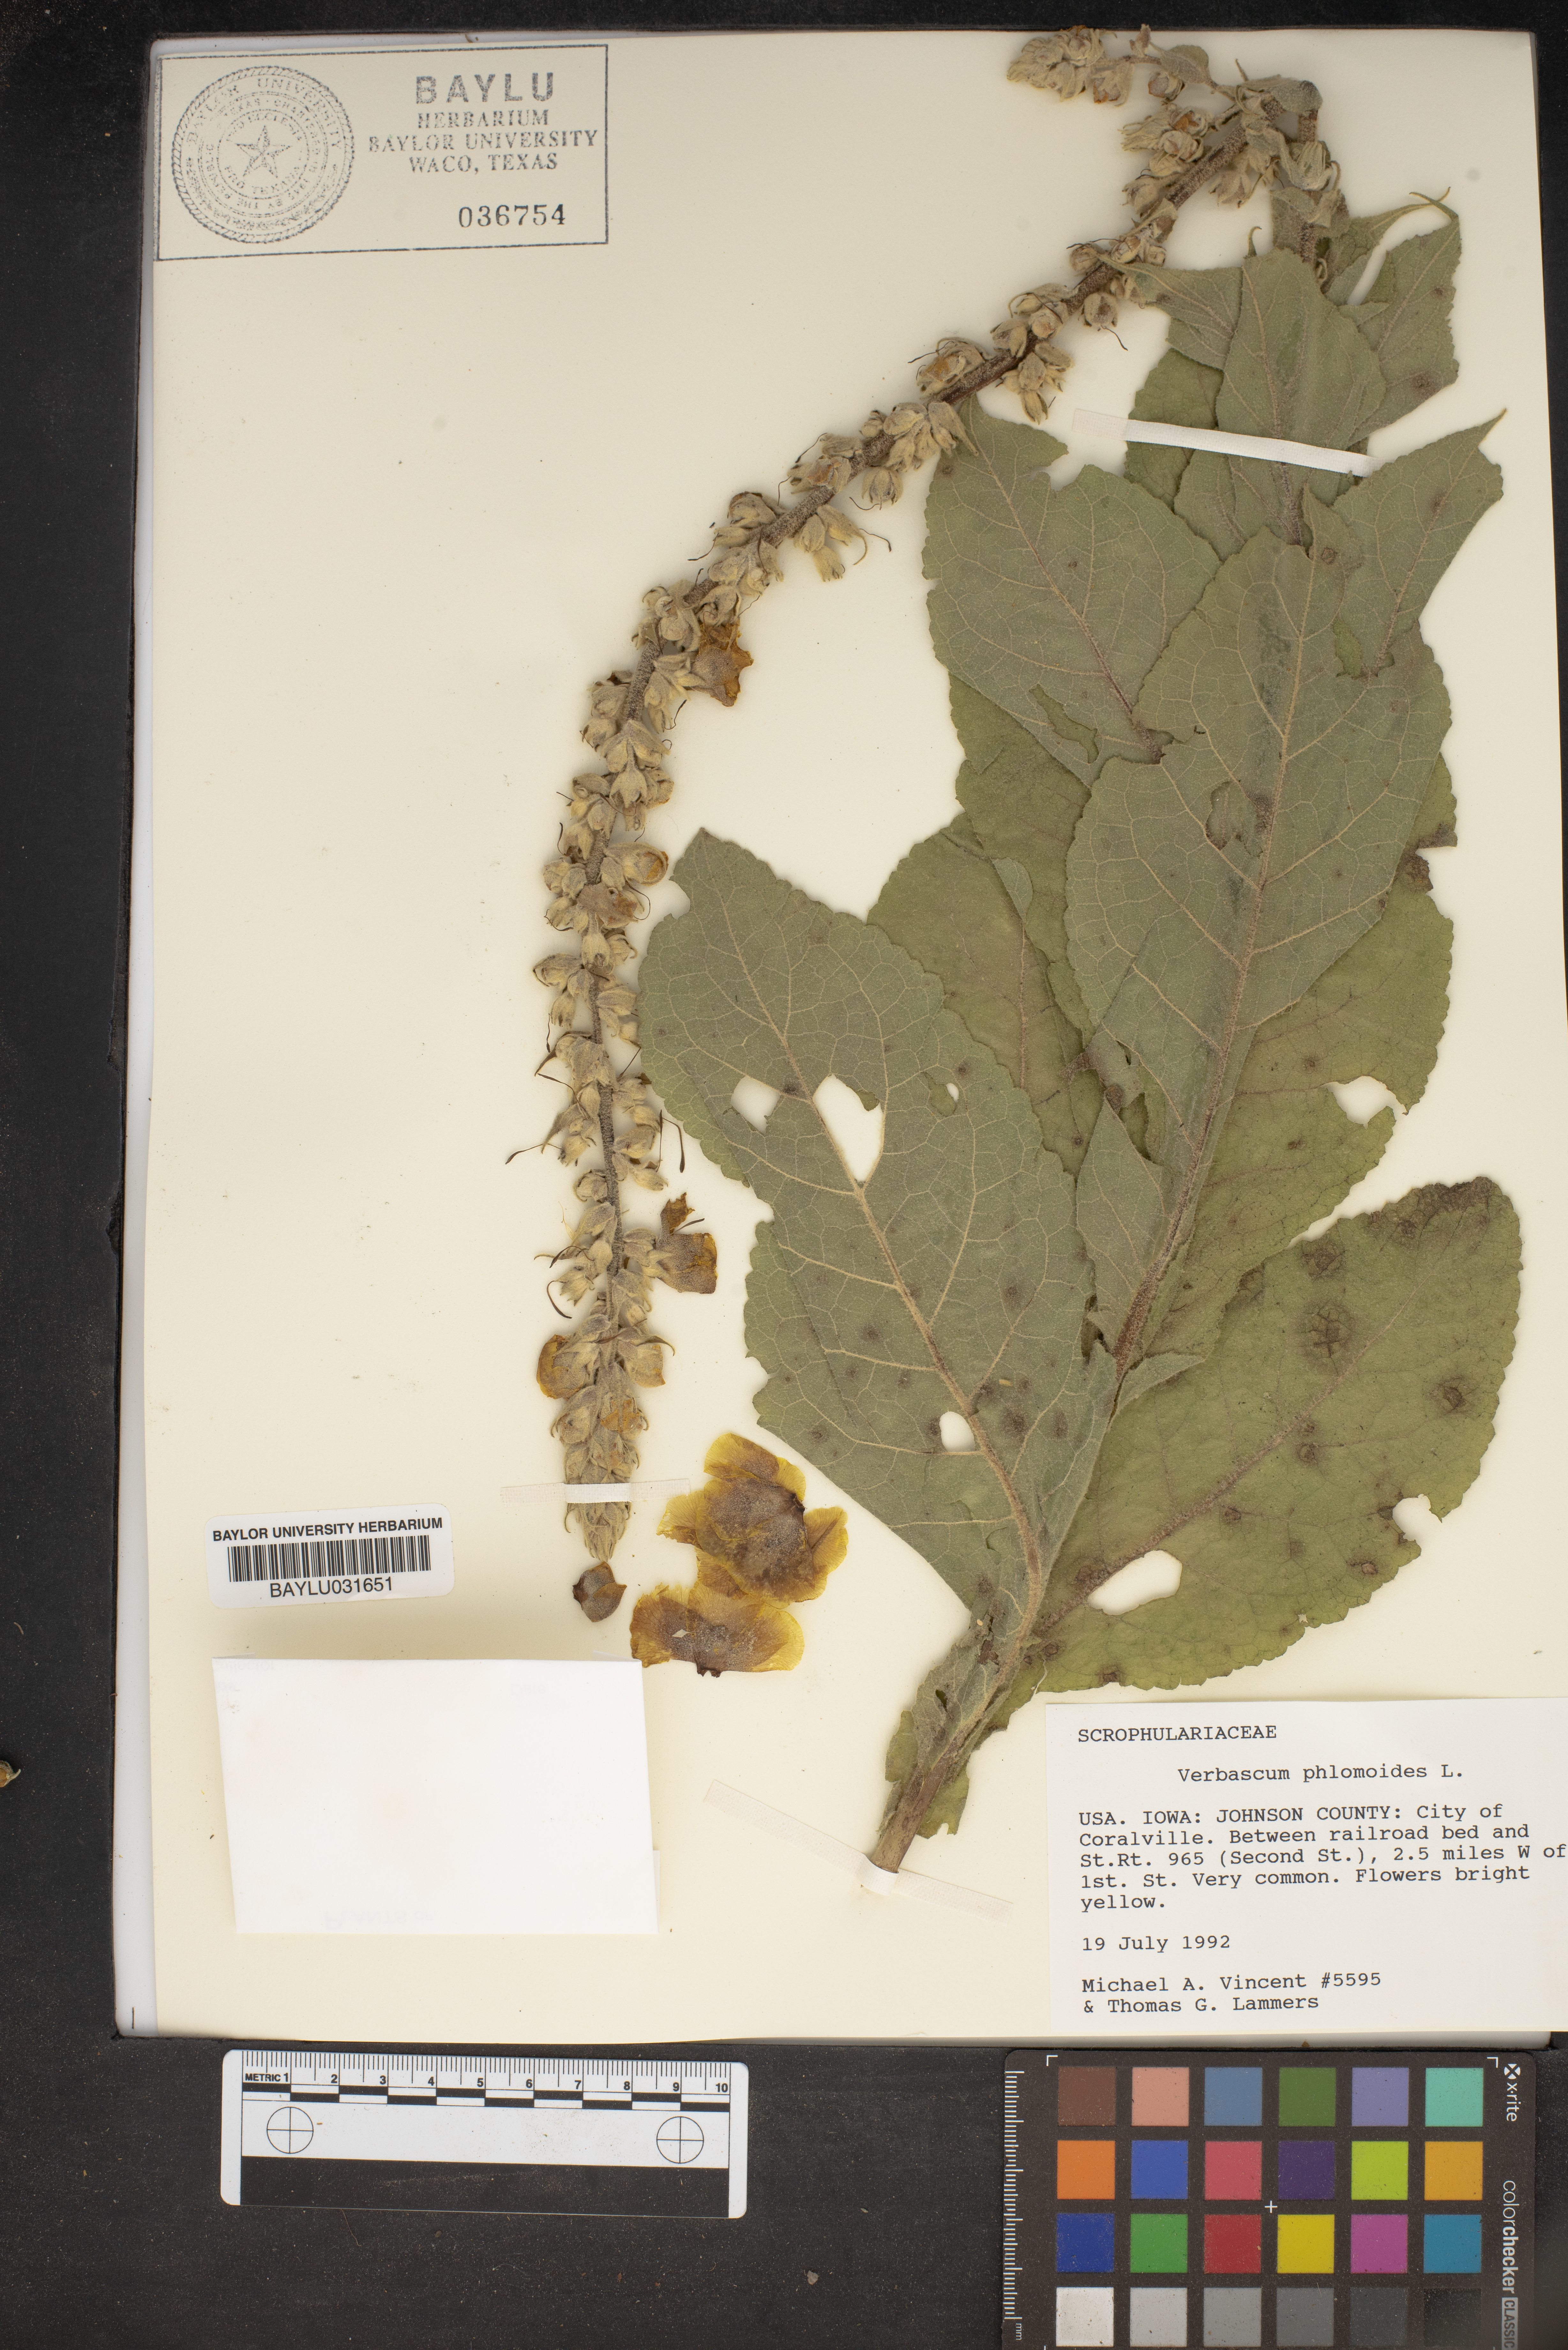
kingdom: Plantae
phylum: Tracheophyta
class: Magnoliopsida
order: Lamiales
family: Scrophulariaceae
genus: Verbascum
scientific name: Verbascum phlomoides
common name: Orange mullein
